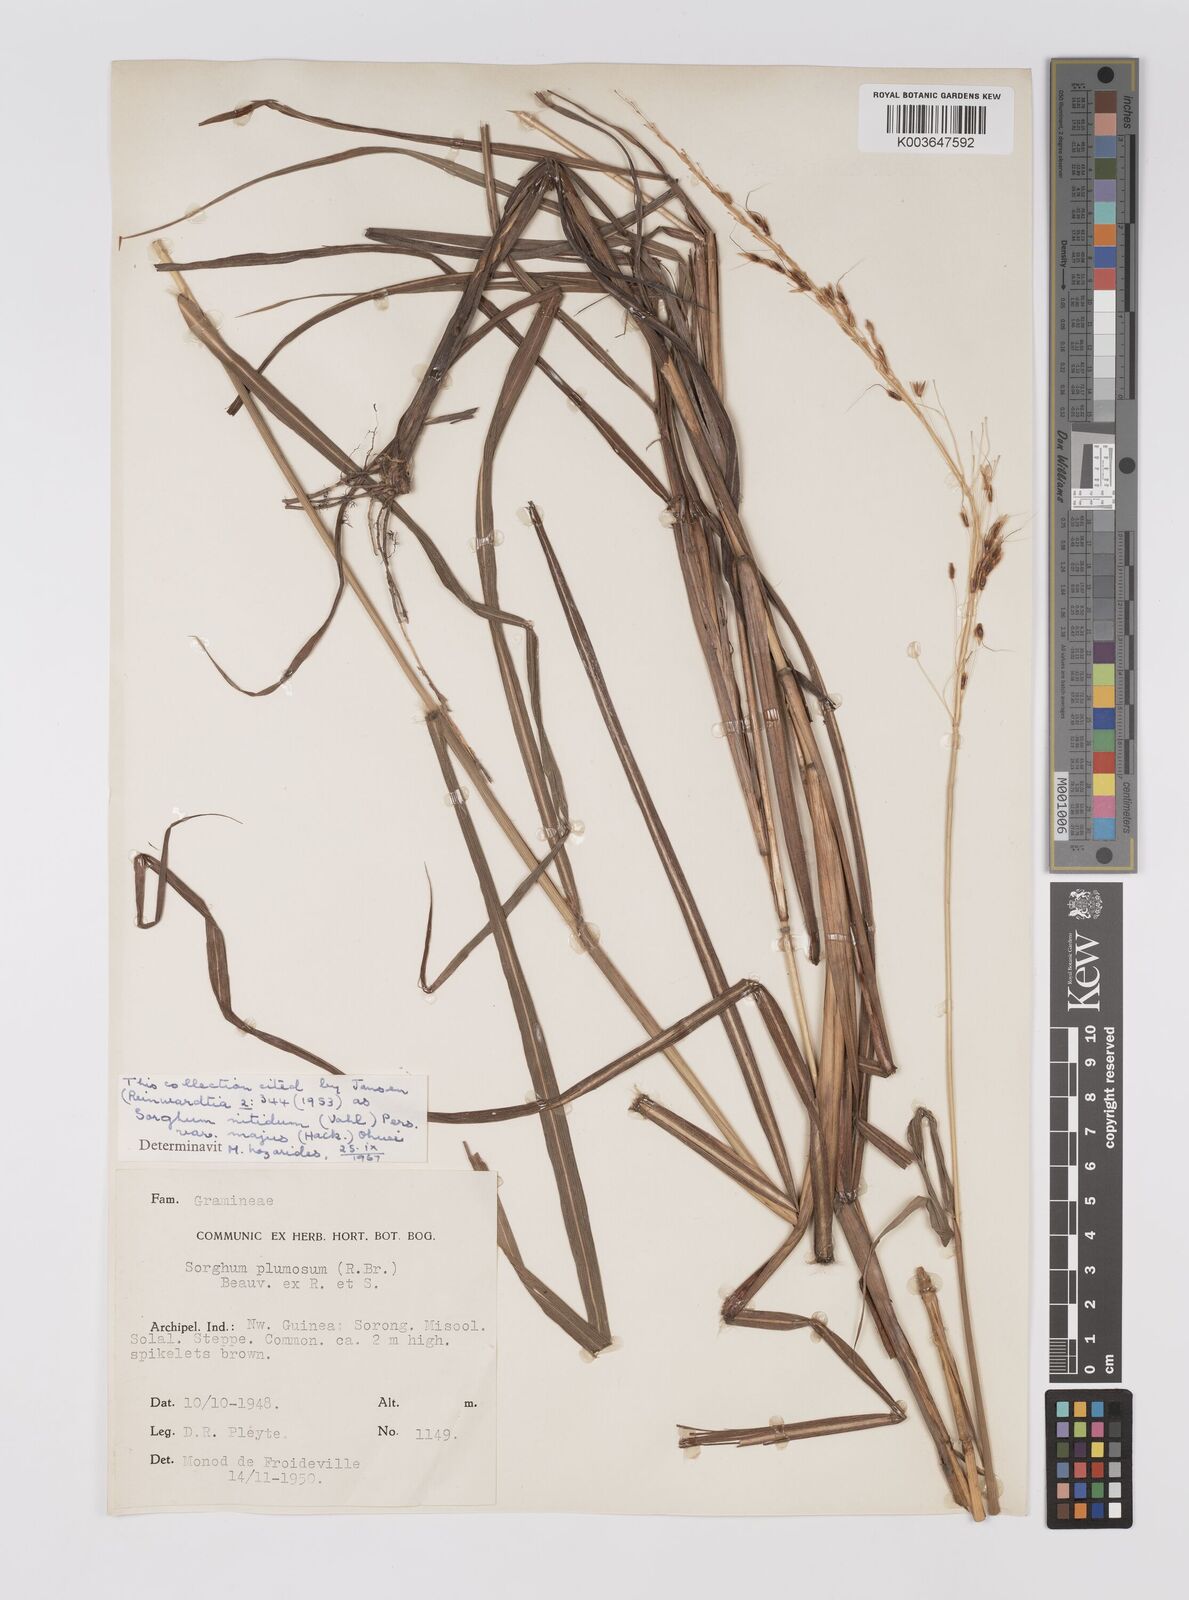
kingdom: Plantae
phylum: Tracheophyta
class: Liliopsida
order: Poales
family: Poaceae
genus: Sorghum
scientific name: Sorghum nitidum
